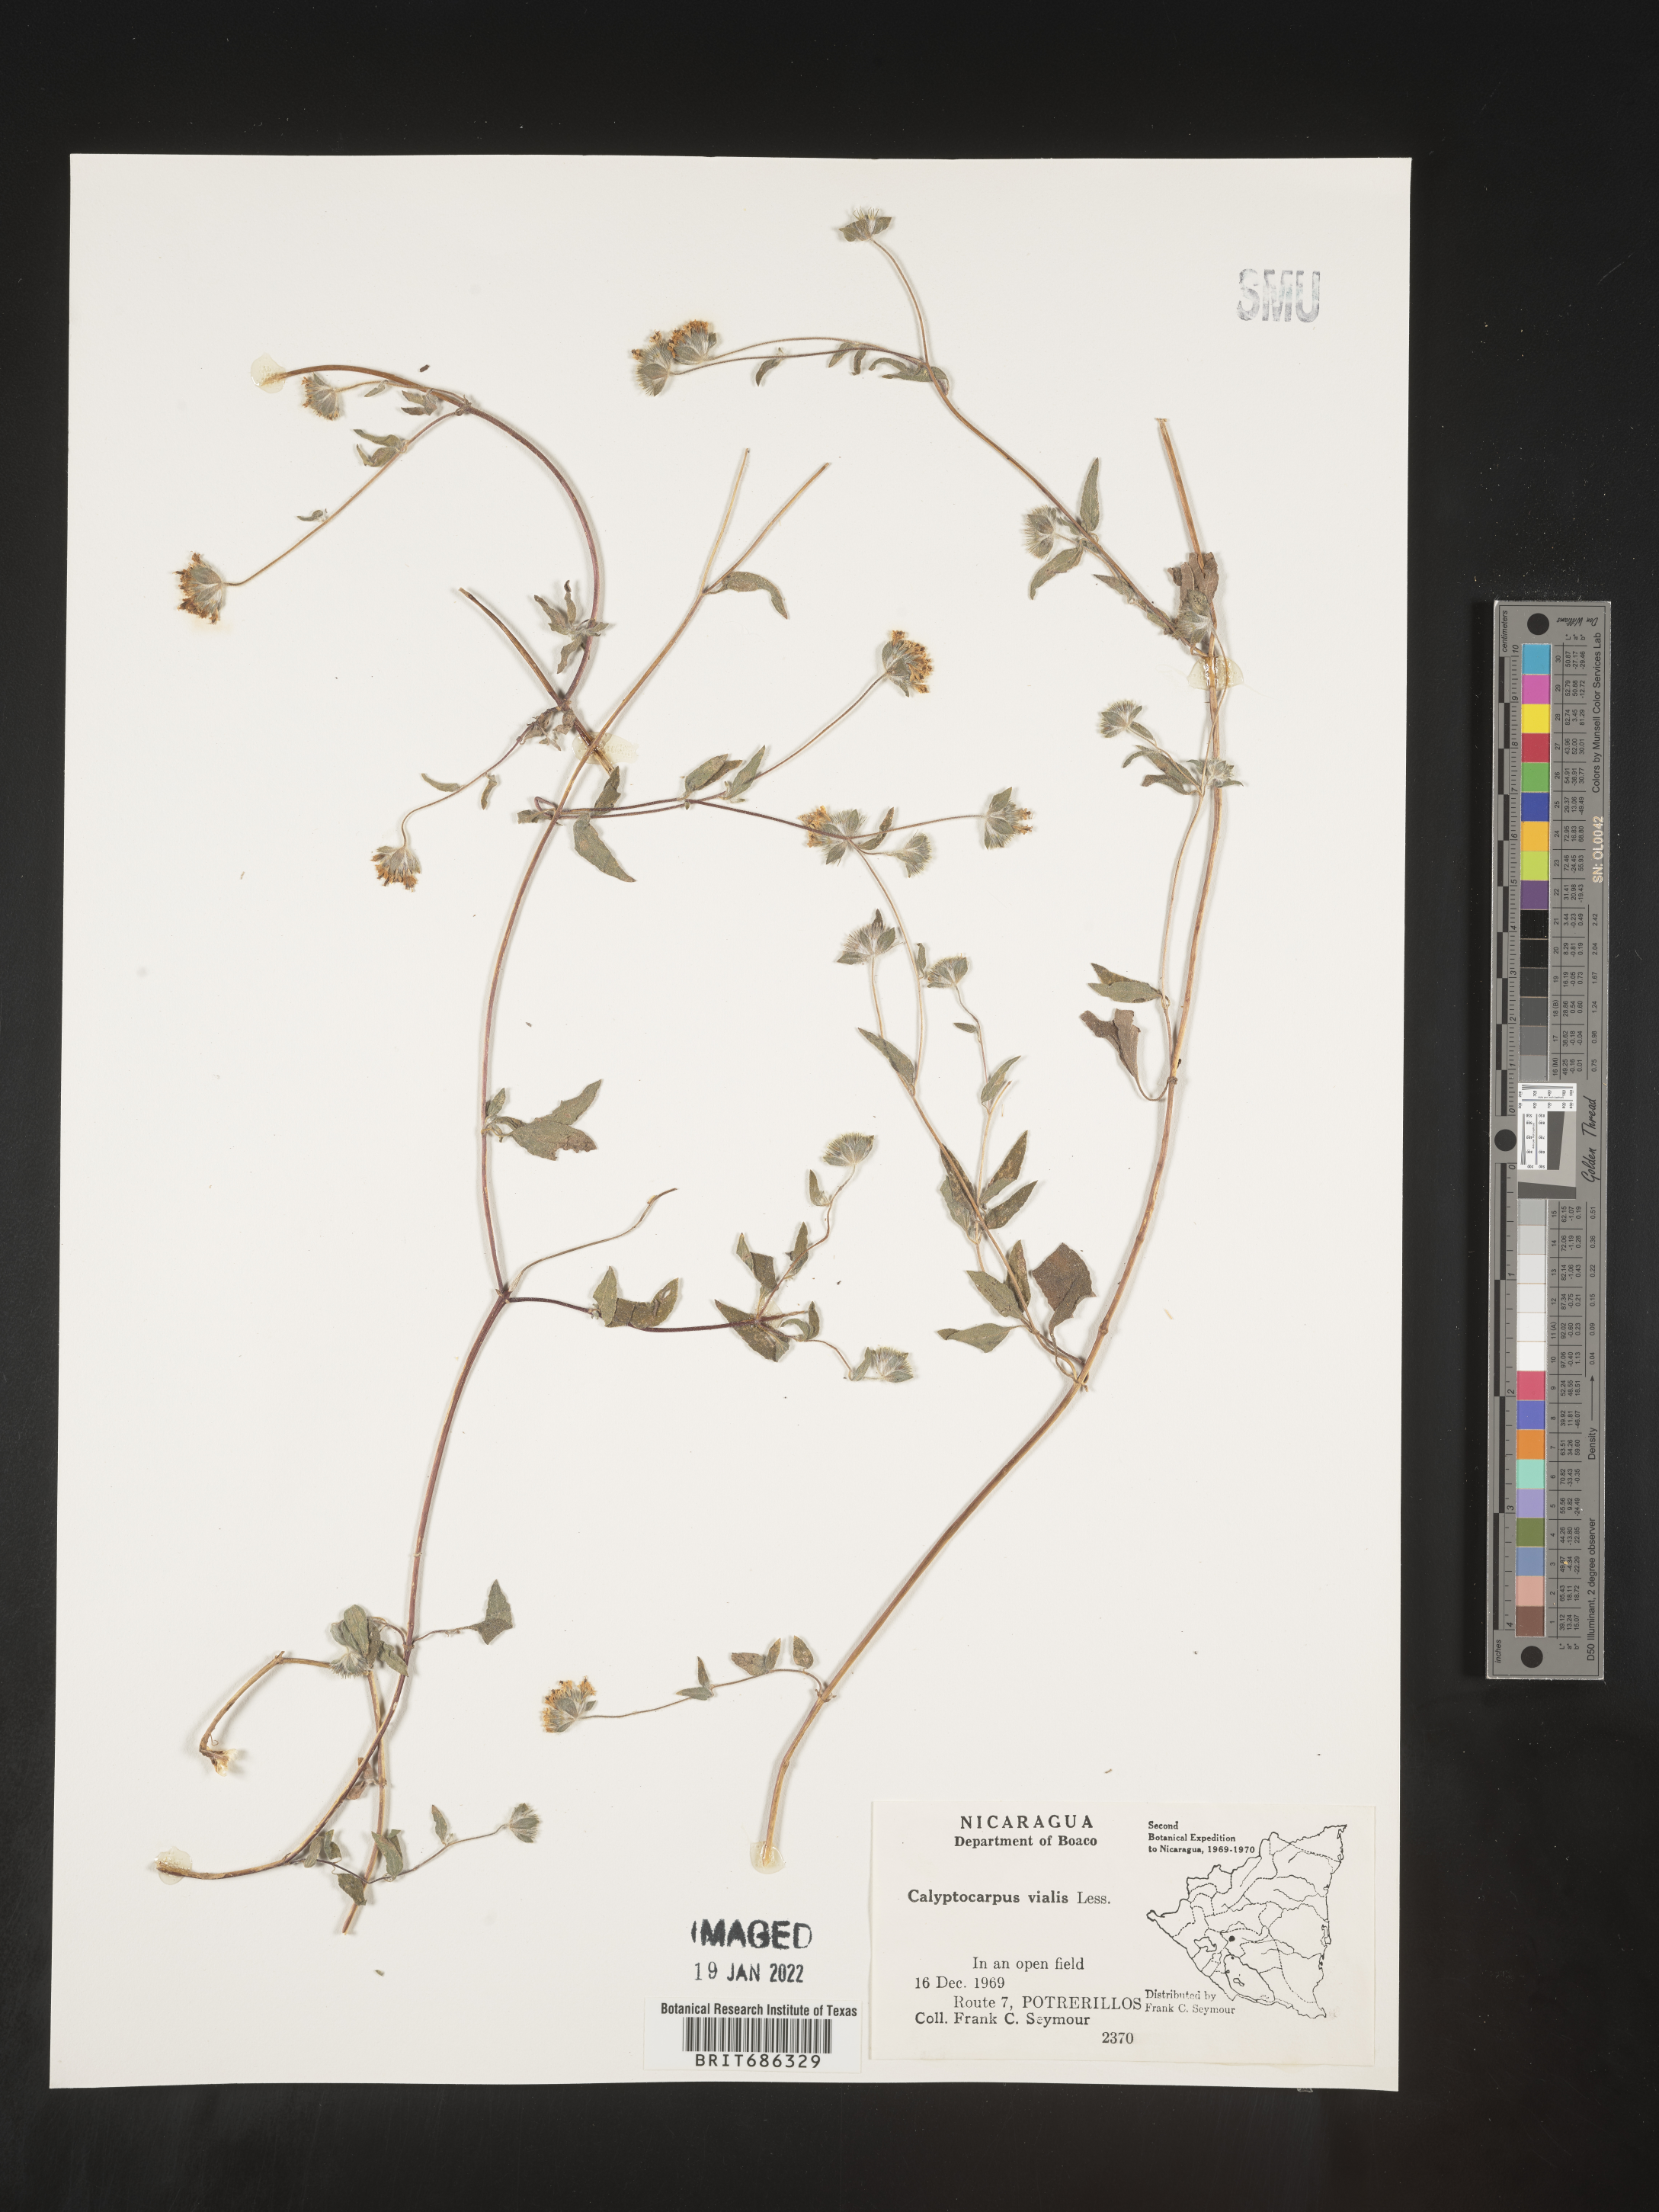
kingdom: Plantae
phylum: Tracheophyta
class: Magnoliopsida
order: Asterales
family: Asteraceae
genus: Calyptocarpus
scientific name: Calyptocarpus
